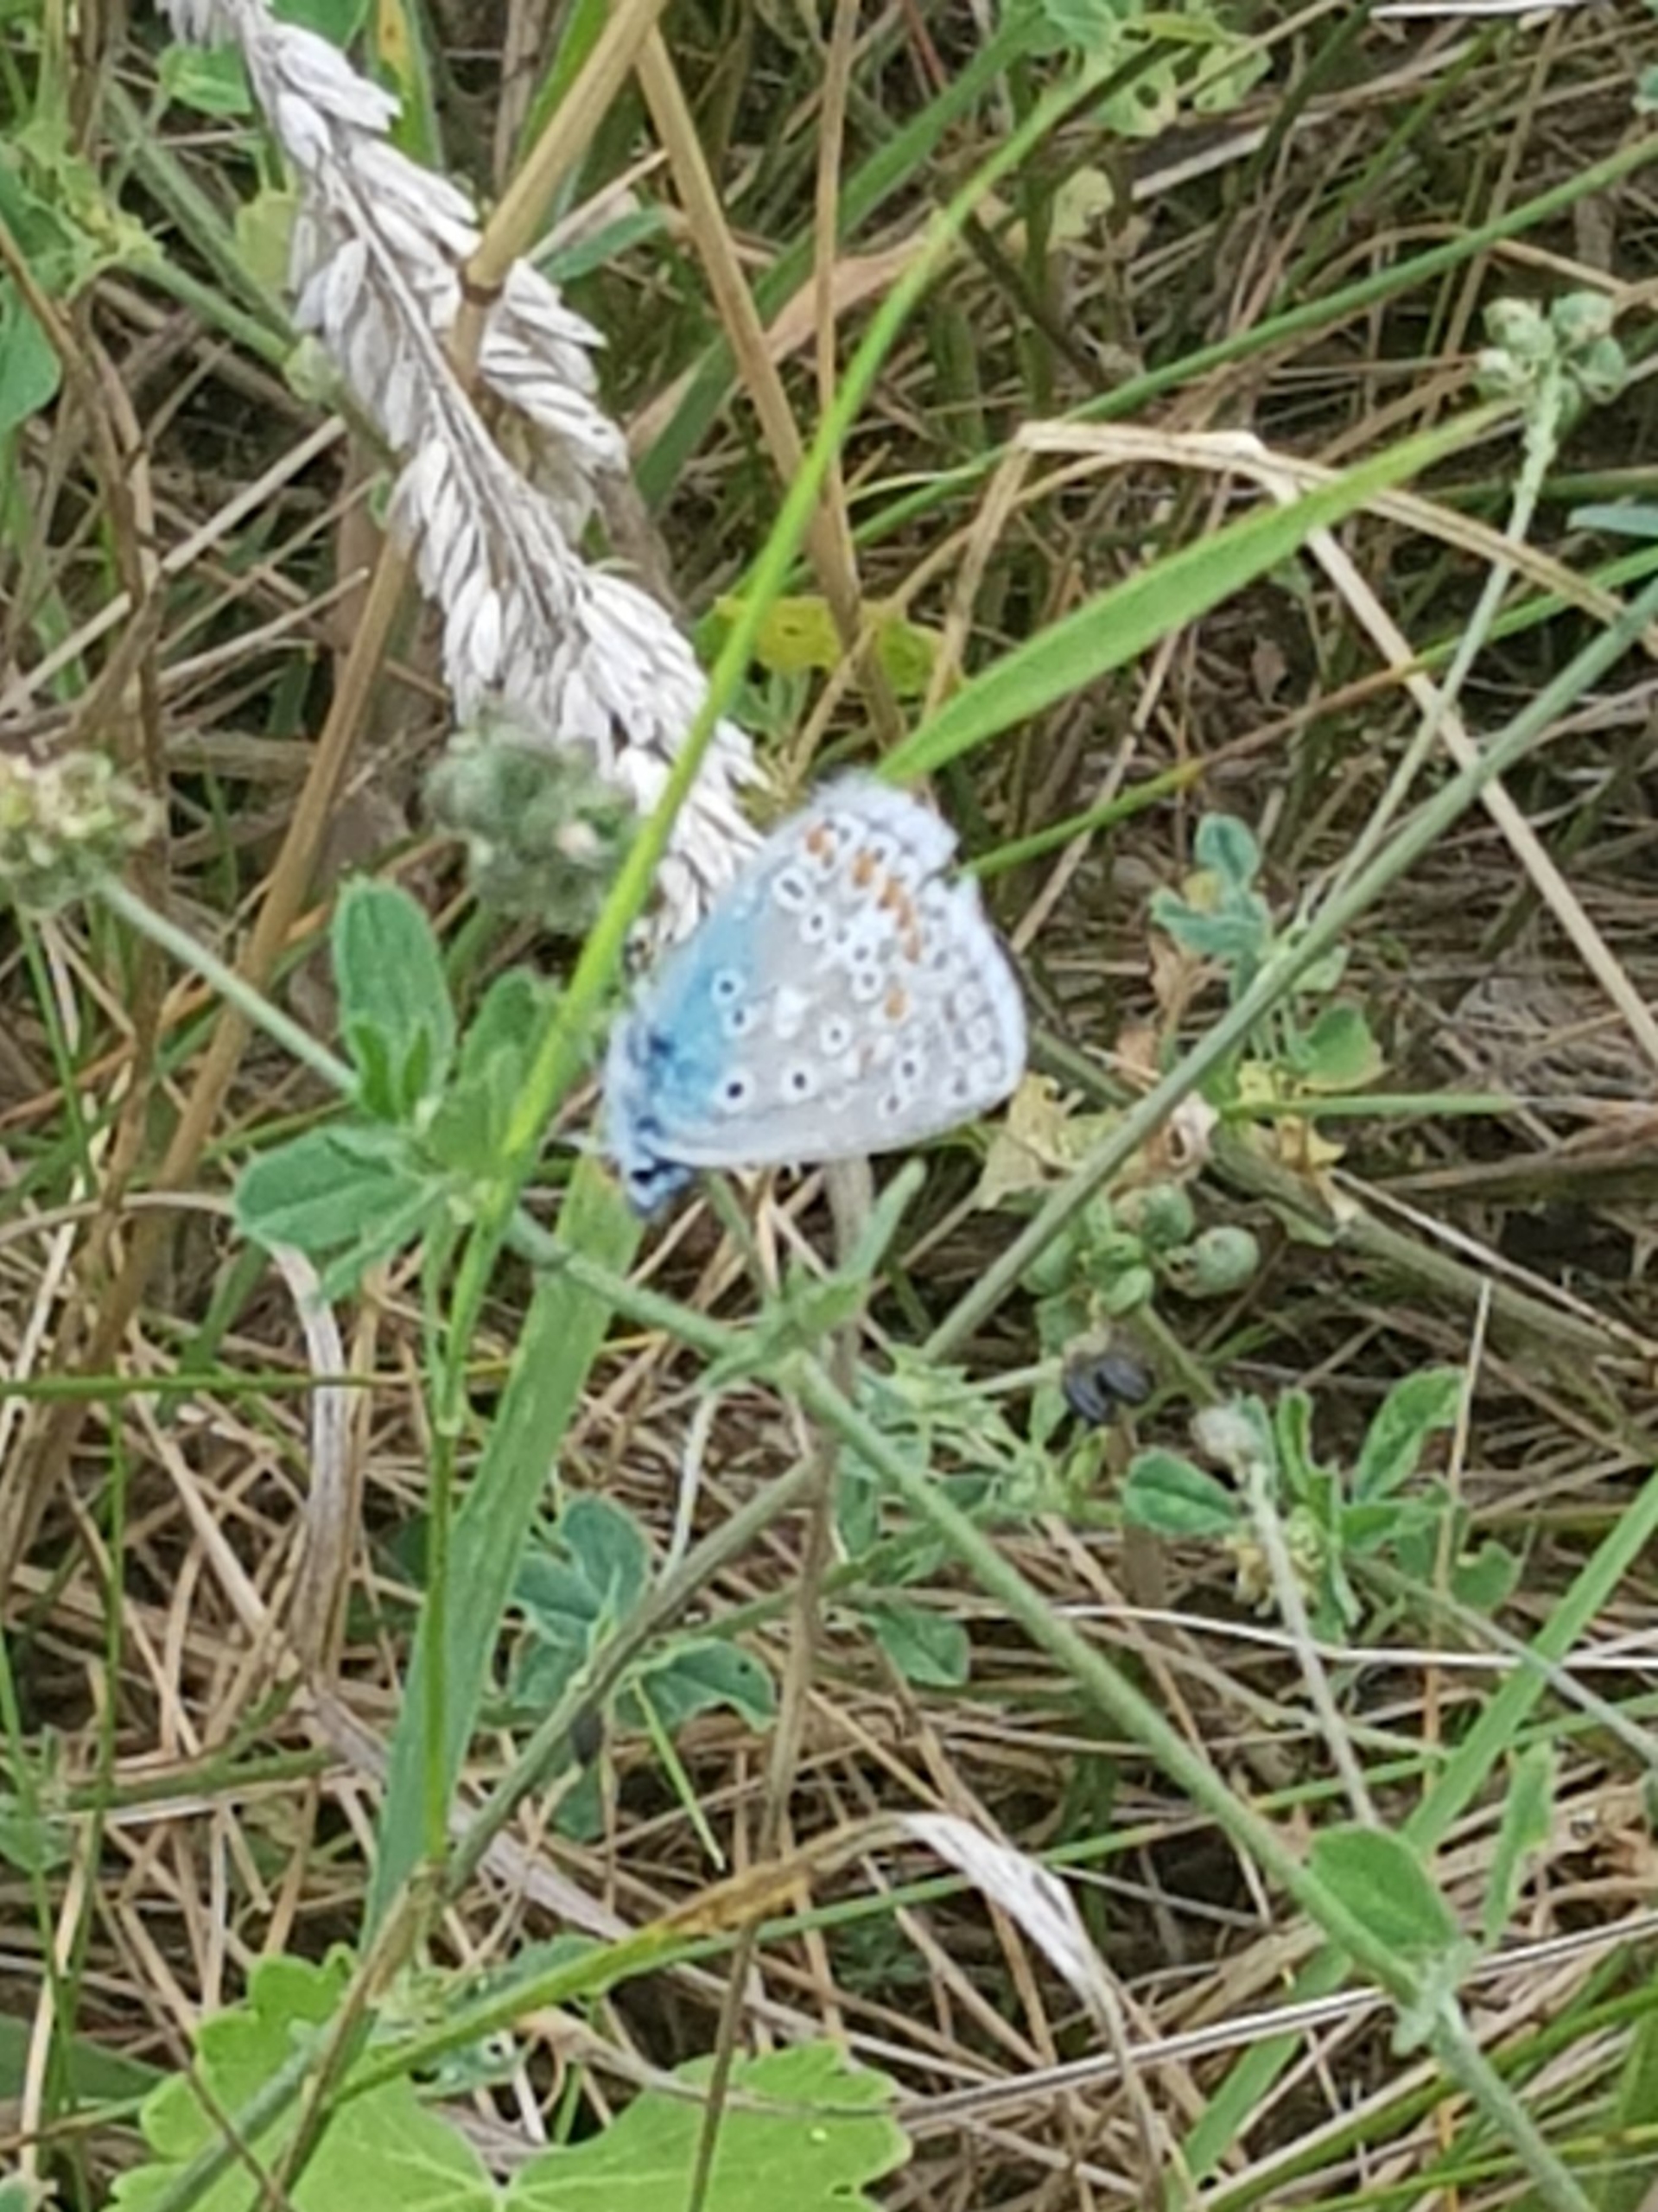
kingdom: Animalia
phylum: Arthropoda
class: Insecta
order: Lepidoptera
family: Lycaenidae
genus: Polyommatus
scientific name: Polyommatus icarus
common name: Almindelig blåfugl
